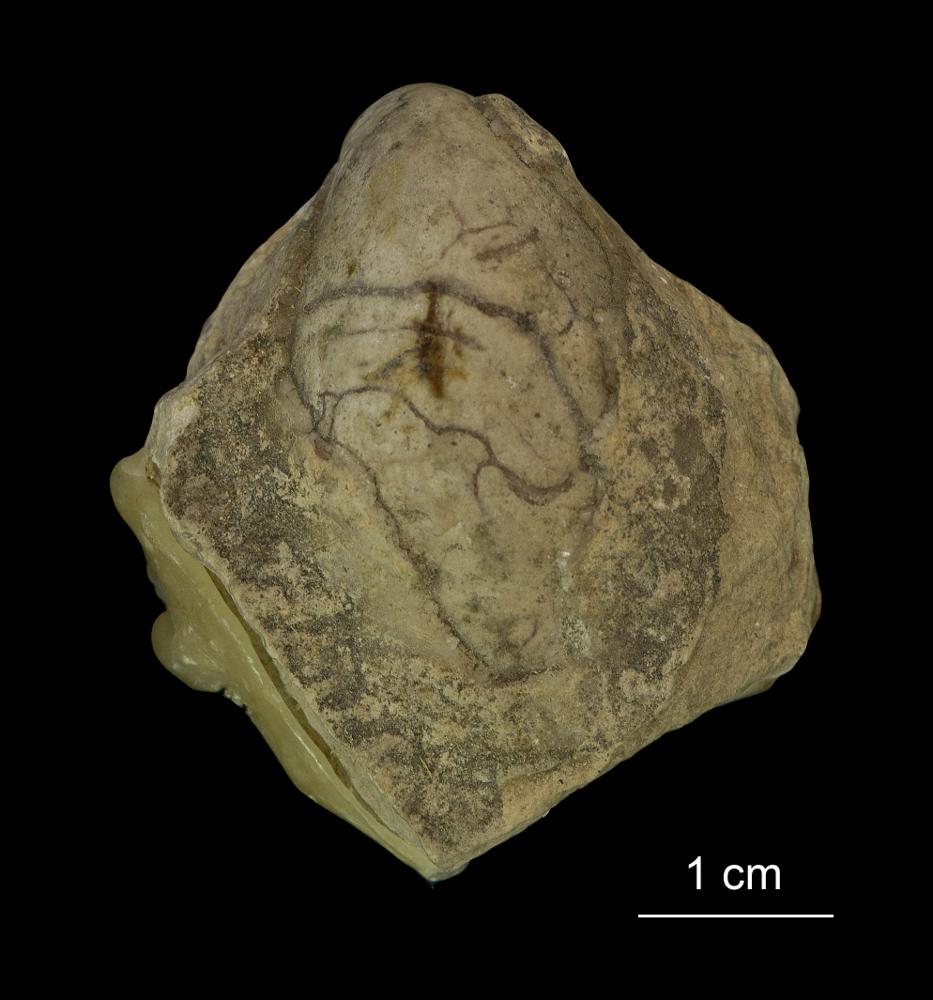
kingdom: Animalia
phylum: Mollusca
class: Bivalvia
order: Mytilida
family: Mytilidae
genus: Modiolus
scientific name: Modiolus incrassatus
